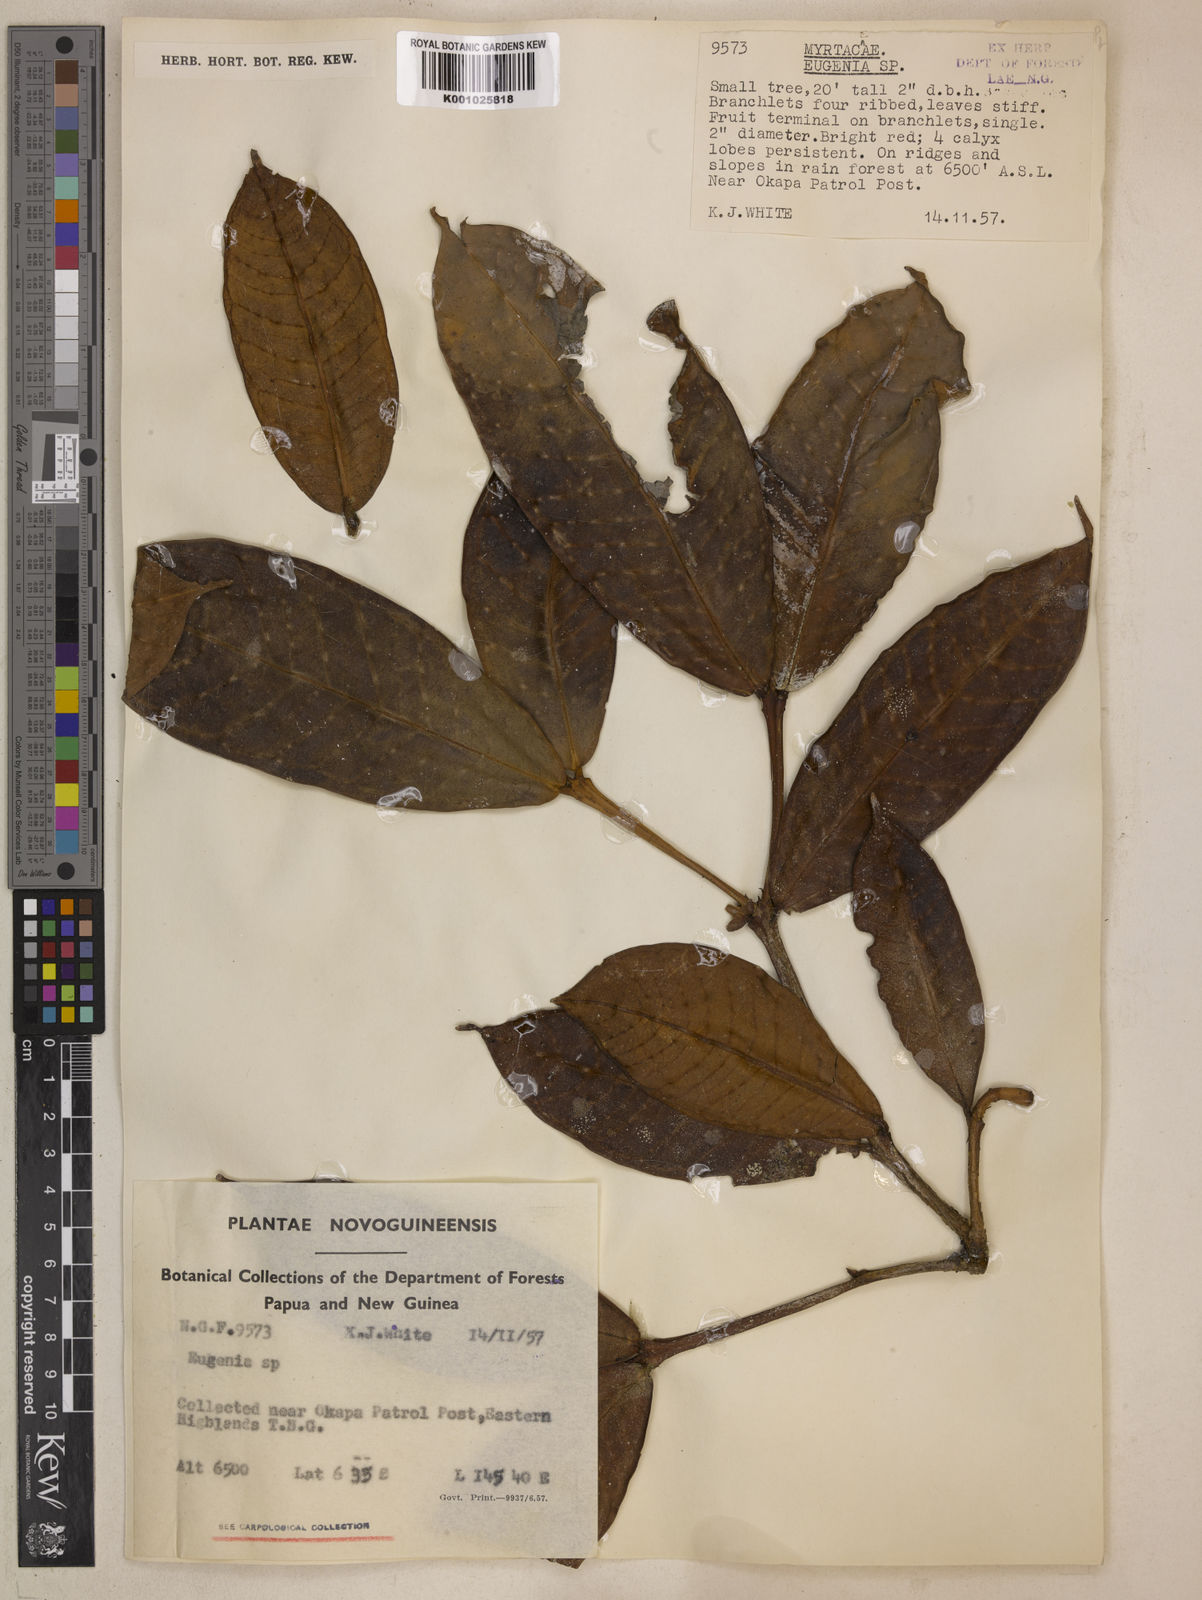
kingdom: Plantae
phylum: Tracheophyta
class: Magnoliopsida
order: Myrtales
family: Myrtaceae
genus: Syzygium
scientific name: Syzygium callianthum
